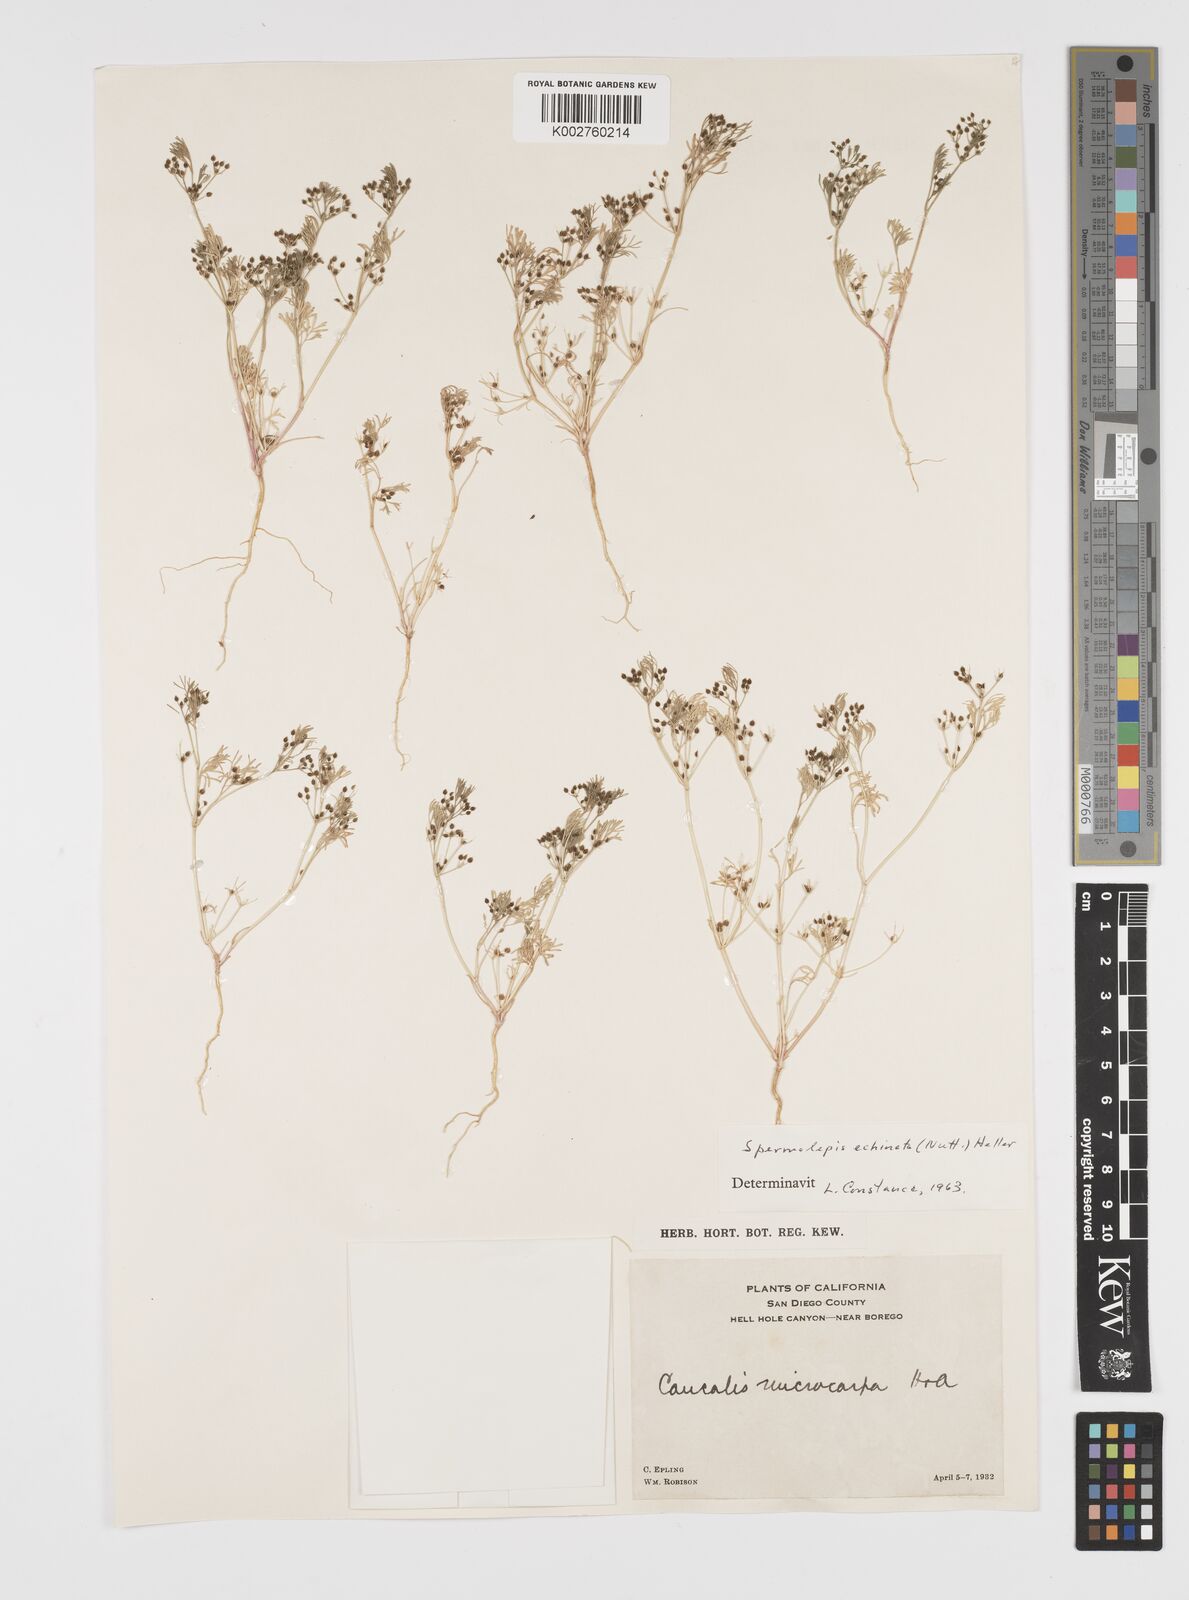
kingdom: Plantae
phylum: Tracheophyta
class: Magnoliopsida
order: Apiales
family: Apiaceae
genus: Spermolepis
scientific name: Spermolepis echinata
